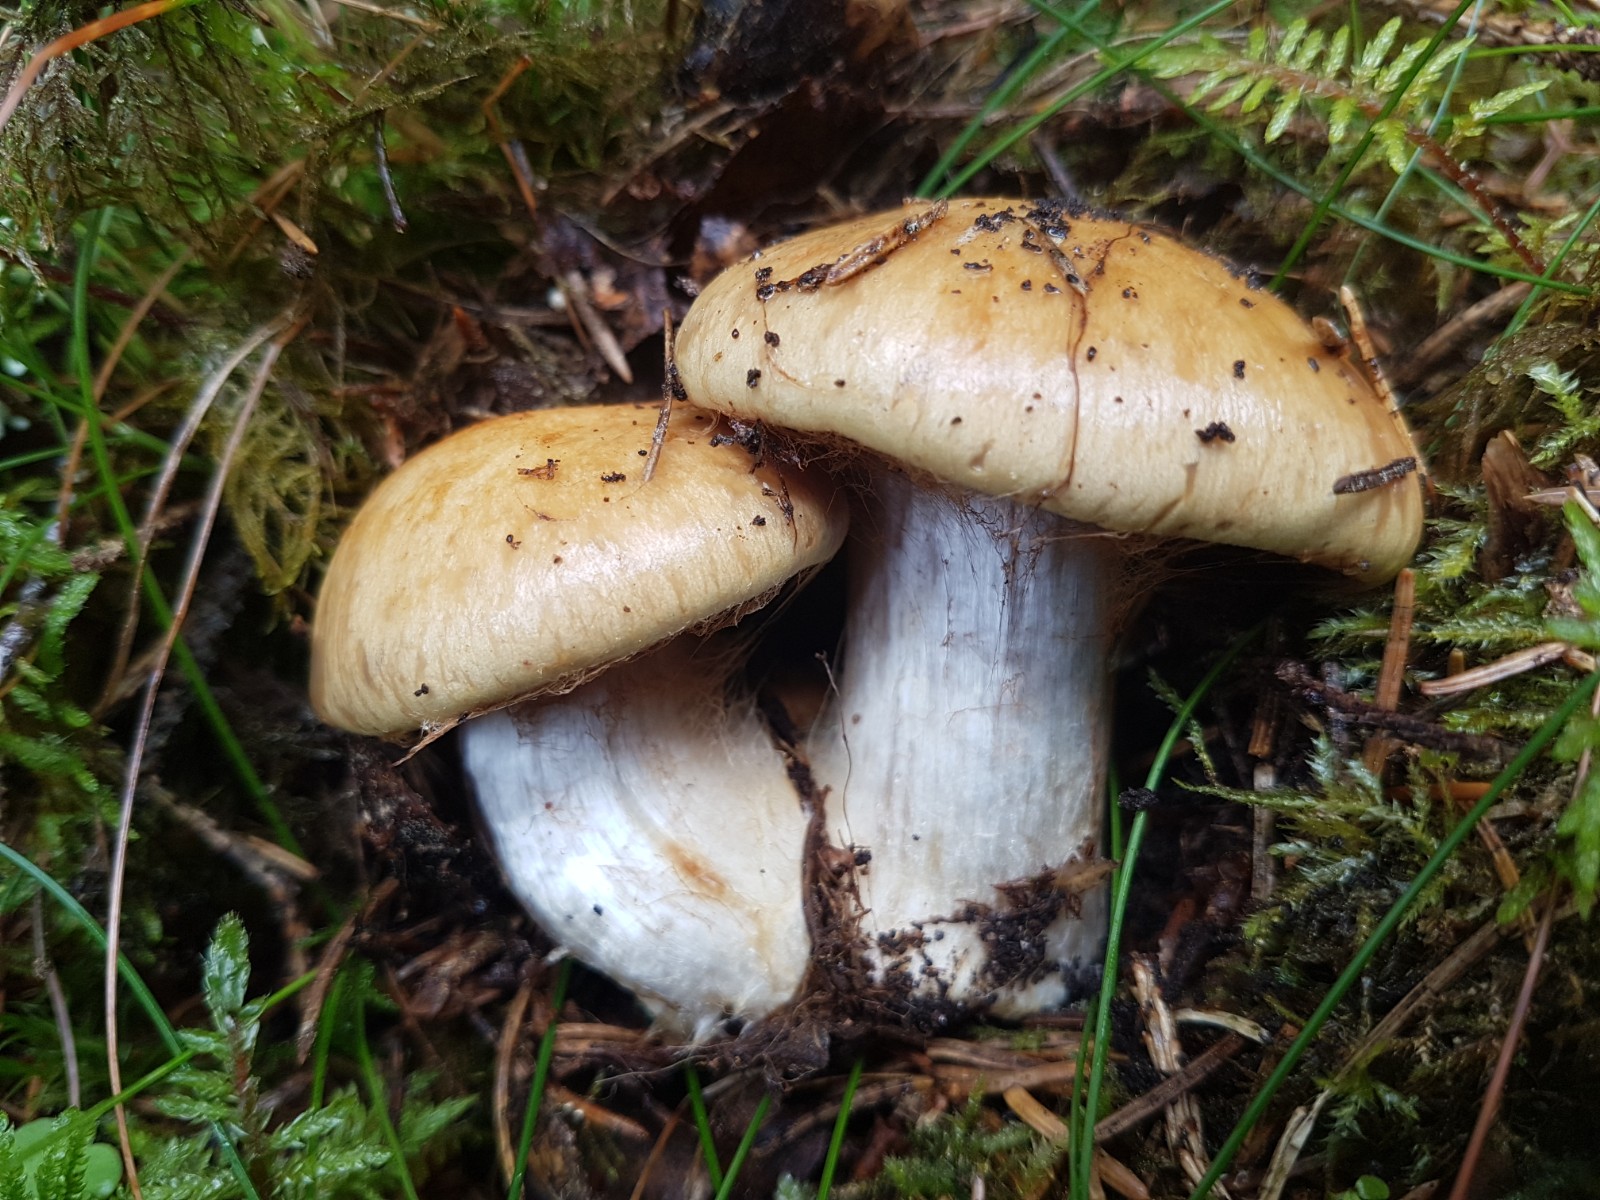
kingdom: Fungi
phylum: Basidiomycota
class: Agaricomycetes
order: Agaricales
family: Cortinariaceae
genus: Phlegmacium
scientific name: Phlegmacium glaucopus
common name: knoldløs slørhat
